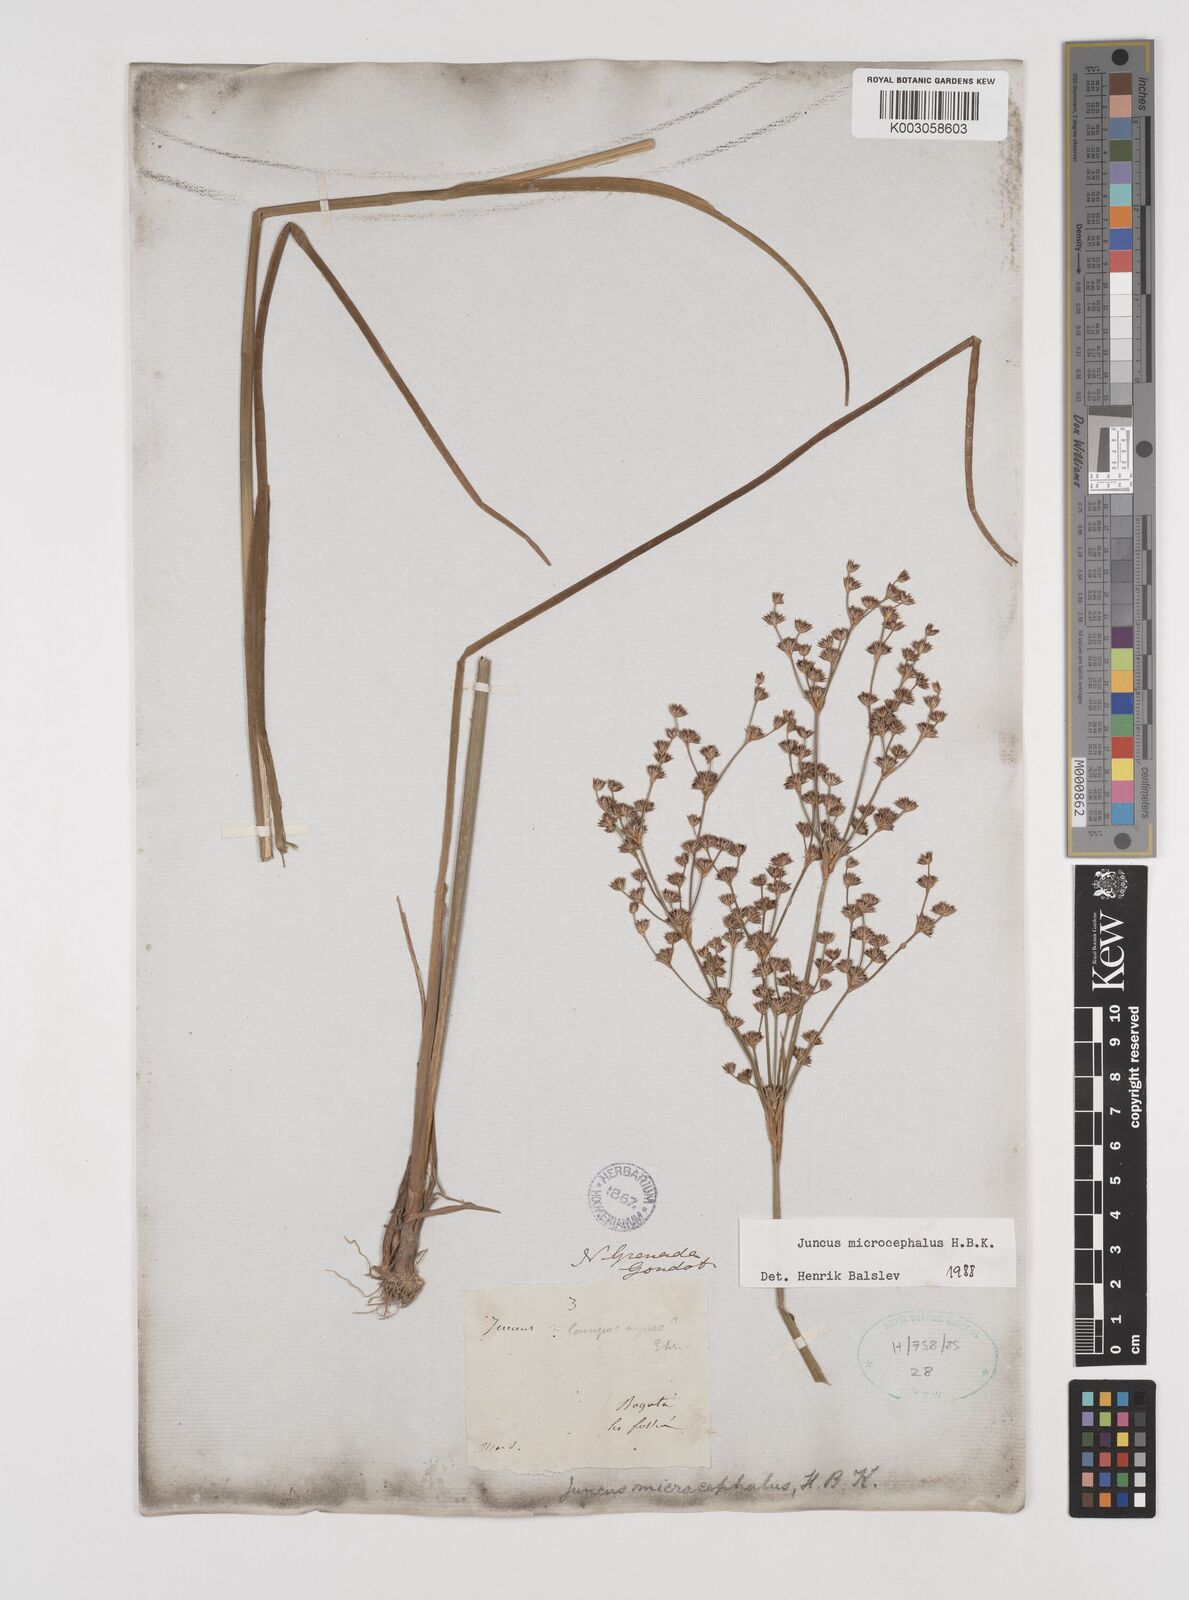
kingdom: Plantae
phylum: Tracheophyta
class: Liliopsida
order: Poales
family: Juncaceae
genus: Juncus
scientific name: Juncus
